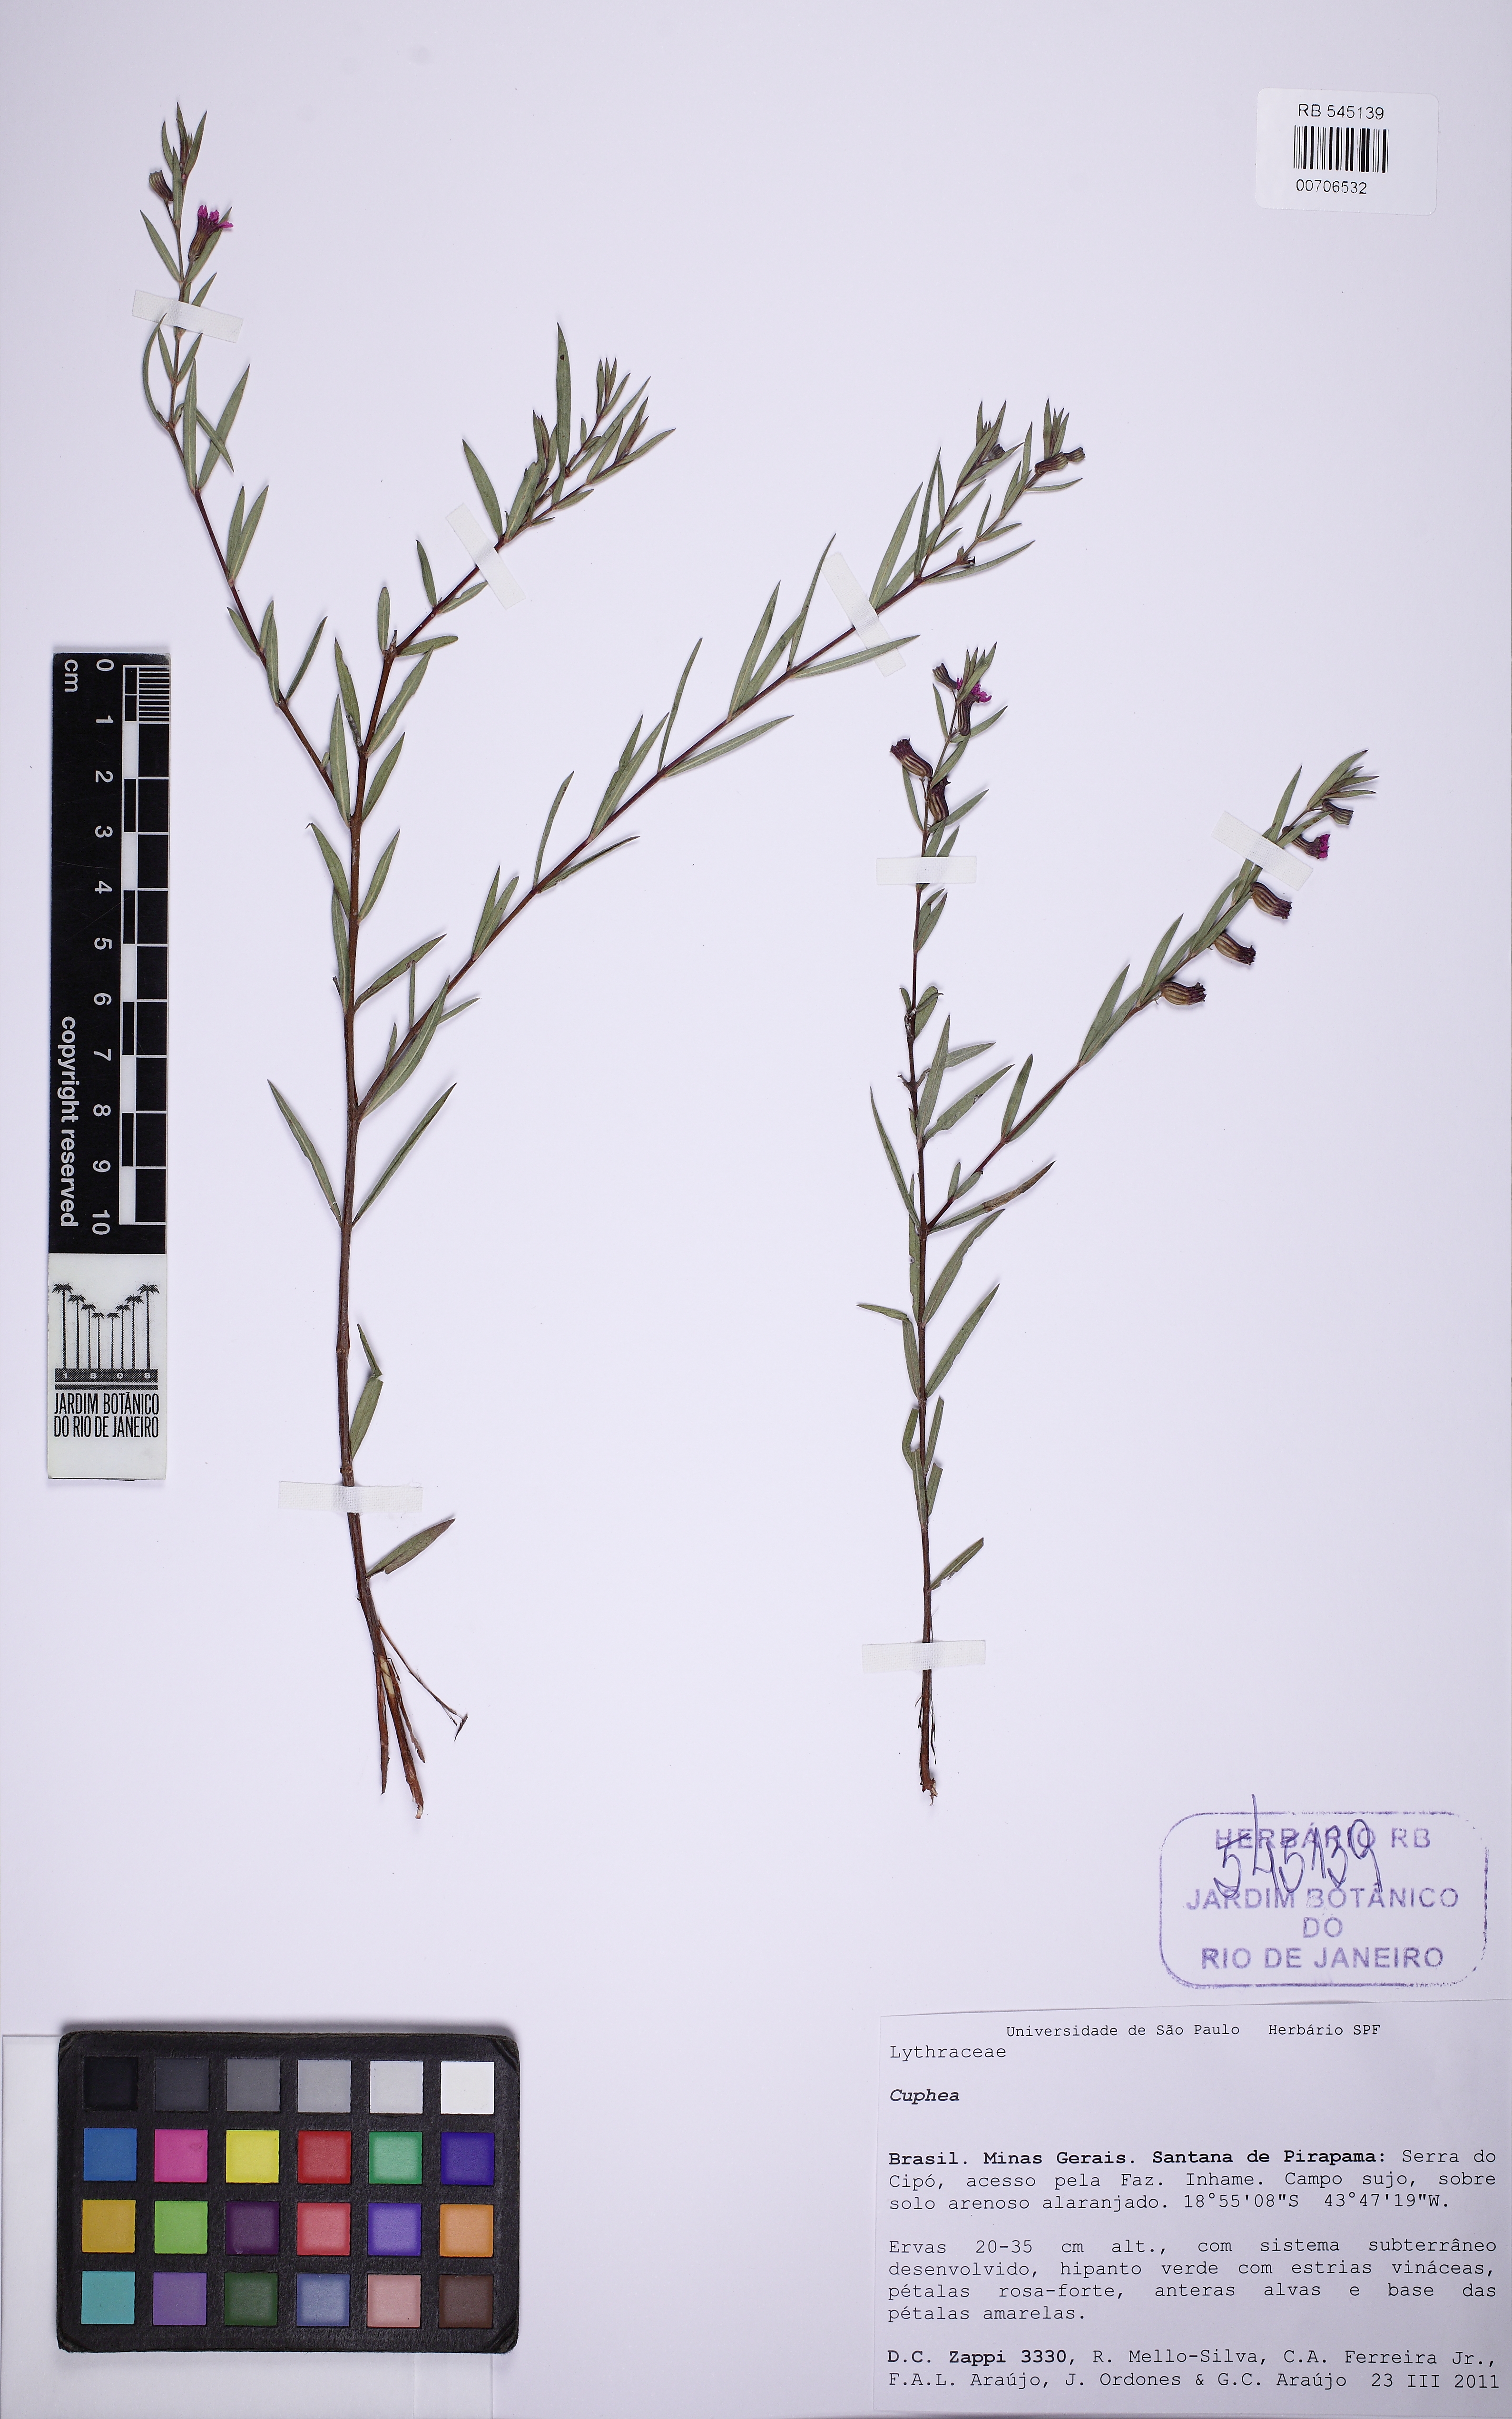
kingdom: Plantae
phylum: Tracheophyta
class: Magnoliopsida
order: Myrtales
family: Lythraceae
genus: Cuphea
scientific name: Cuphea sclerophylla
